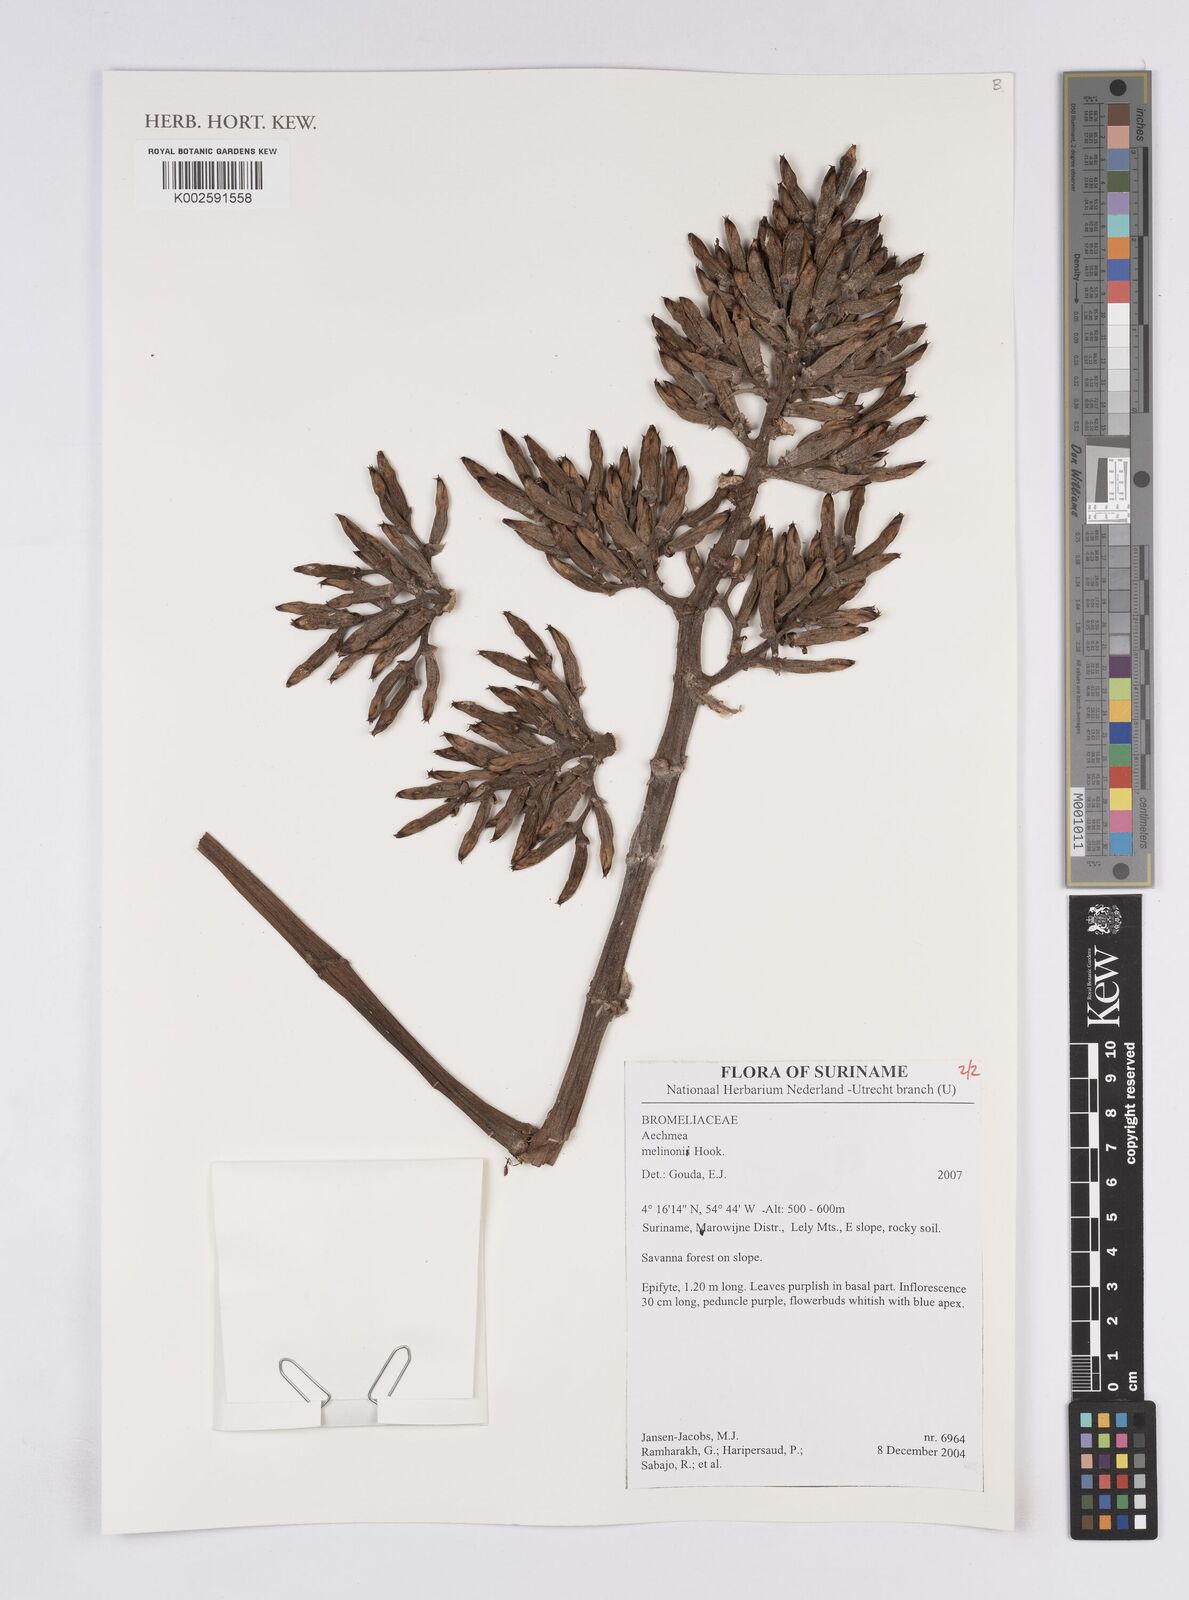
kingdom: Plantae
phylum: Tracheophyta
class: Liliopsida
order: Poales
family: Bromeliaceae
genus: Aechmea
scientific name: Aechmea melinonii
